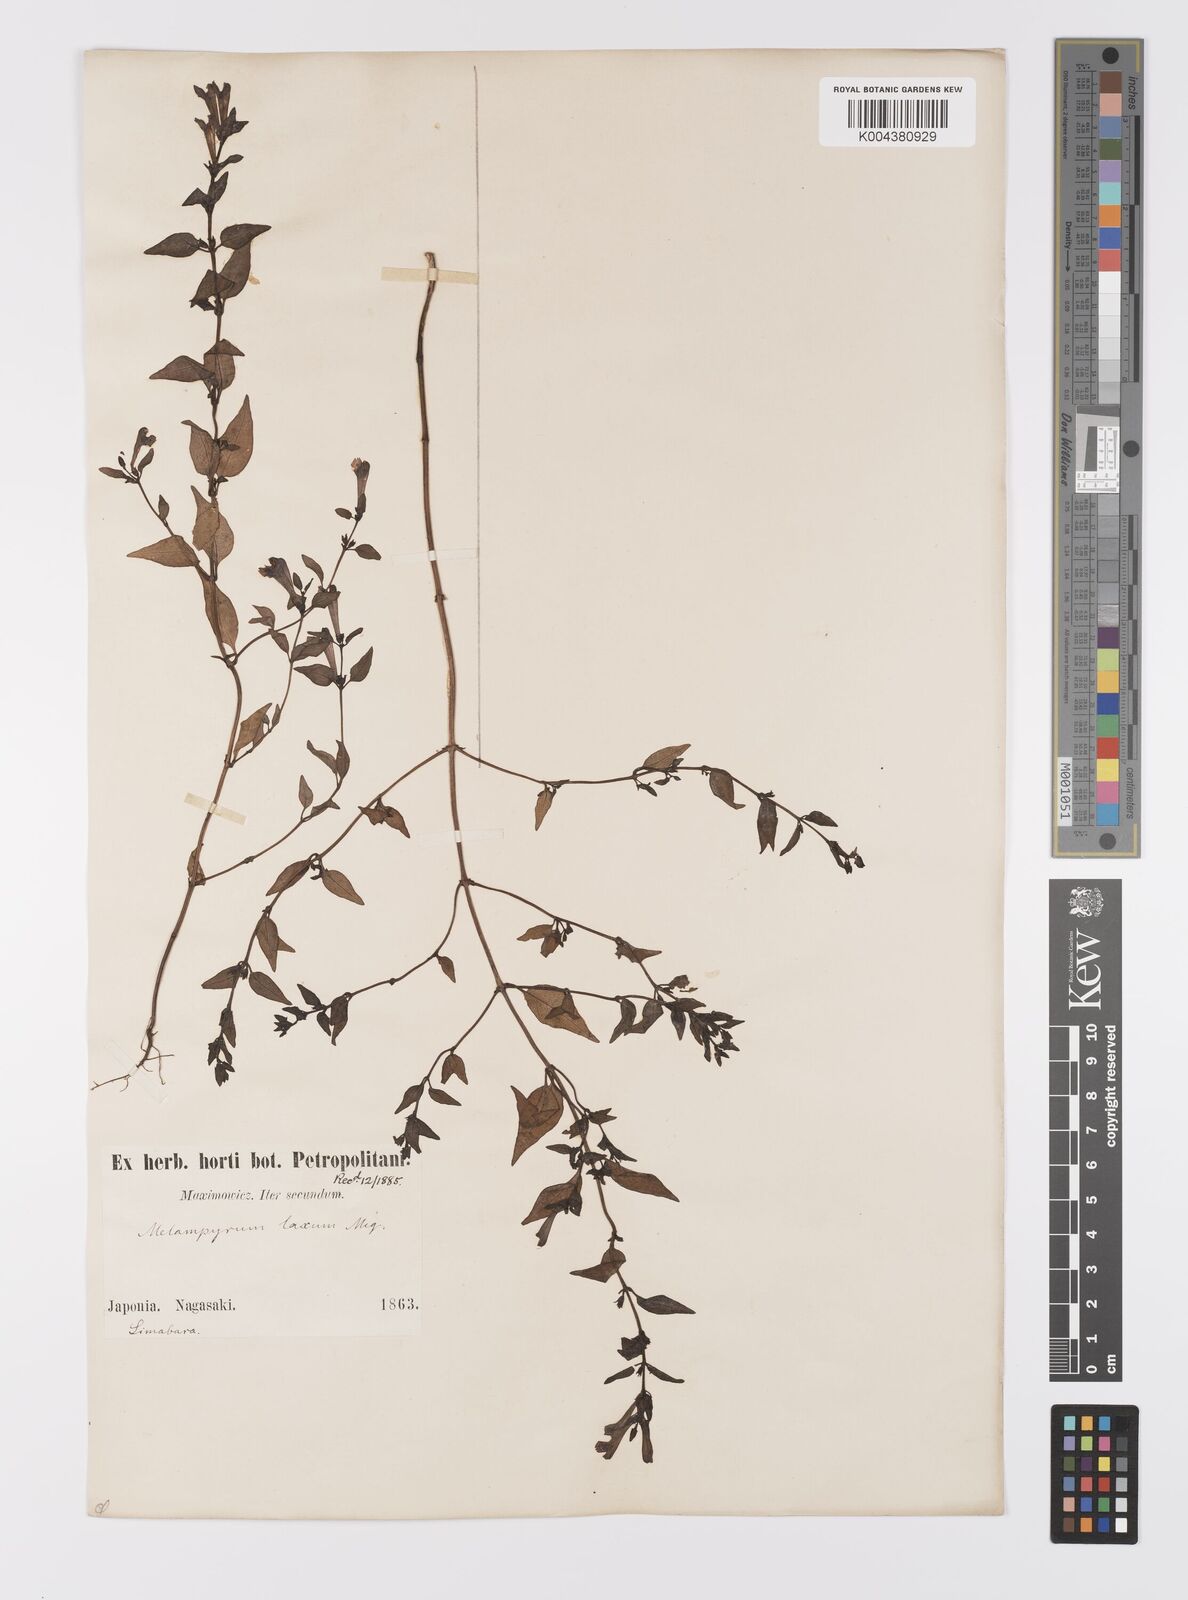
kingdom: Plantae
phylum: Tracheophyta
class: Magnoliopsida
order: Lamiales
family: Orobanchaceae
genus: Melampyrum
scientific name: Melampyrum laxum
